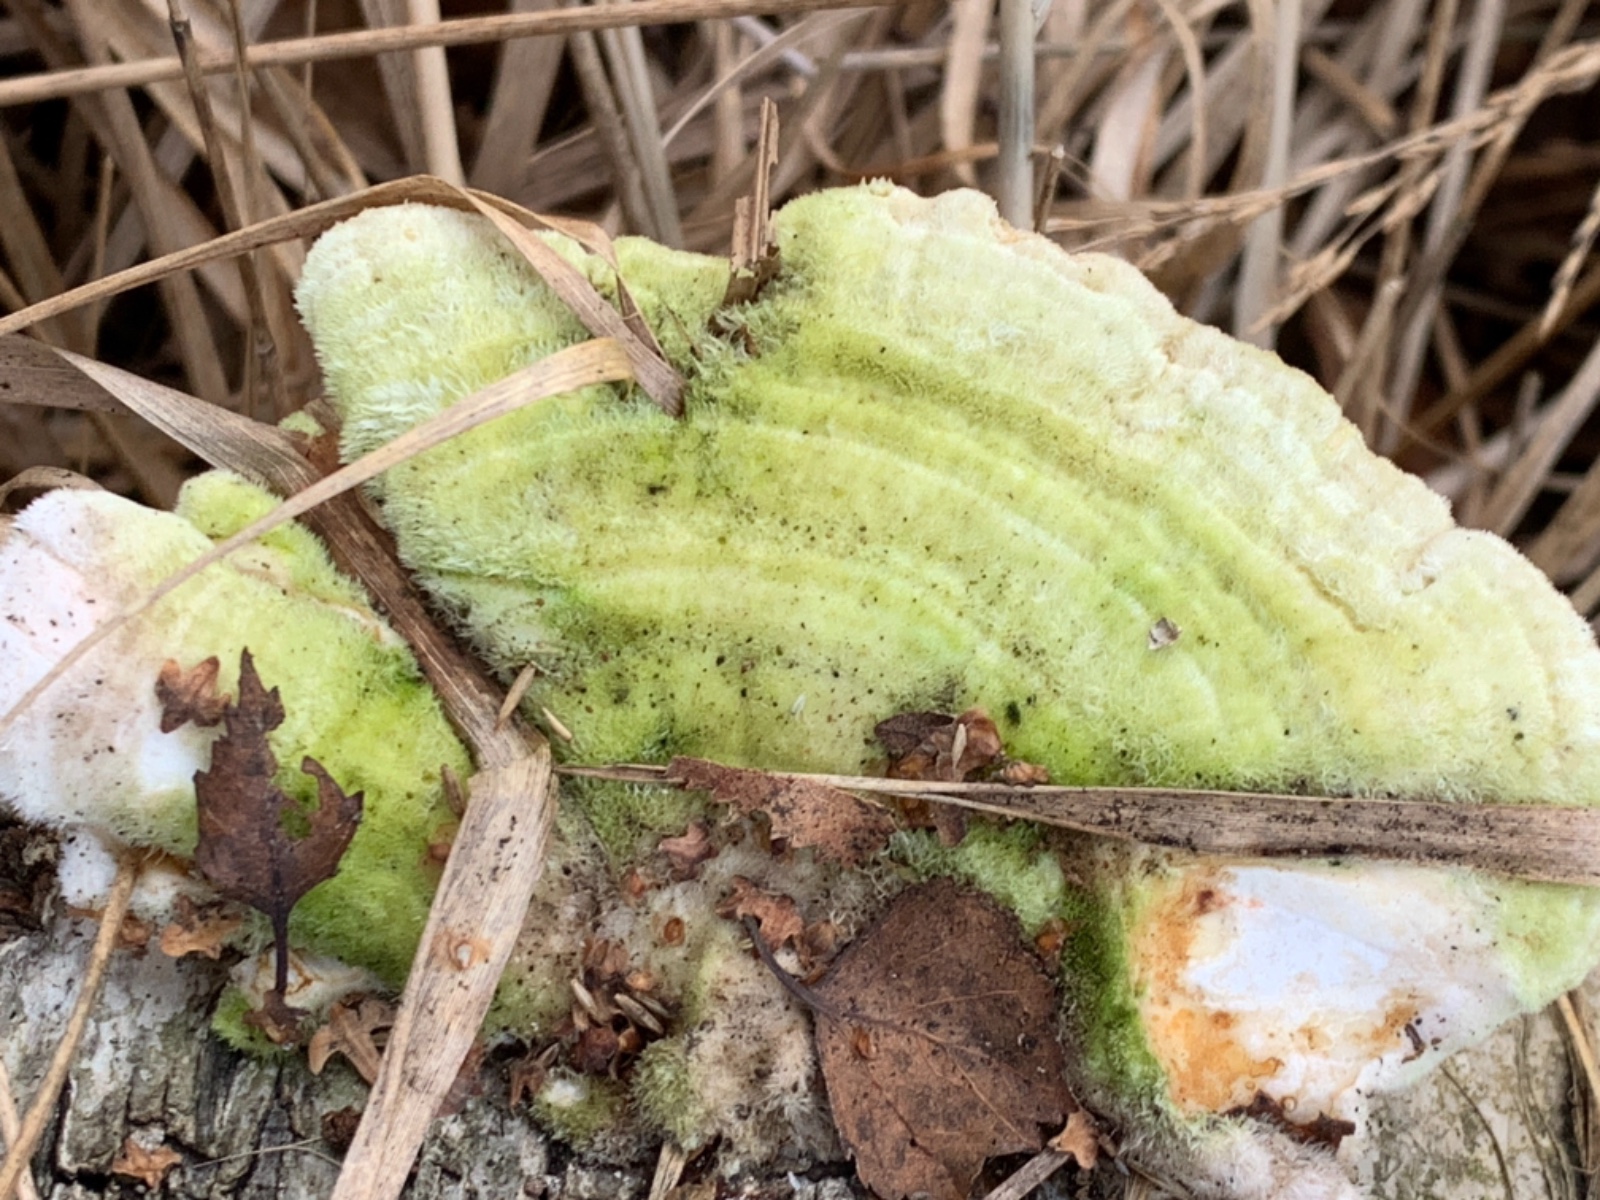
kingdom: Fungi
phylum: Basidiomycota
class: Agaricomycetes
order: Polyporales
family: Polyporaceae
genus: Trametes
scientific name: Trametes hirsuta
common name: håret læderporesvamp
